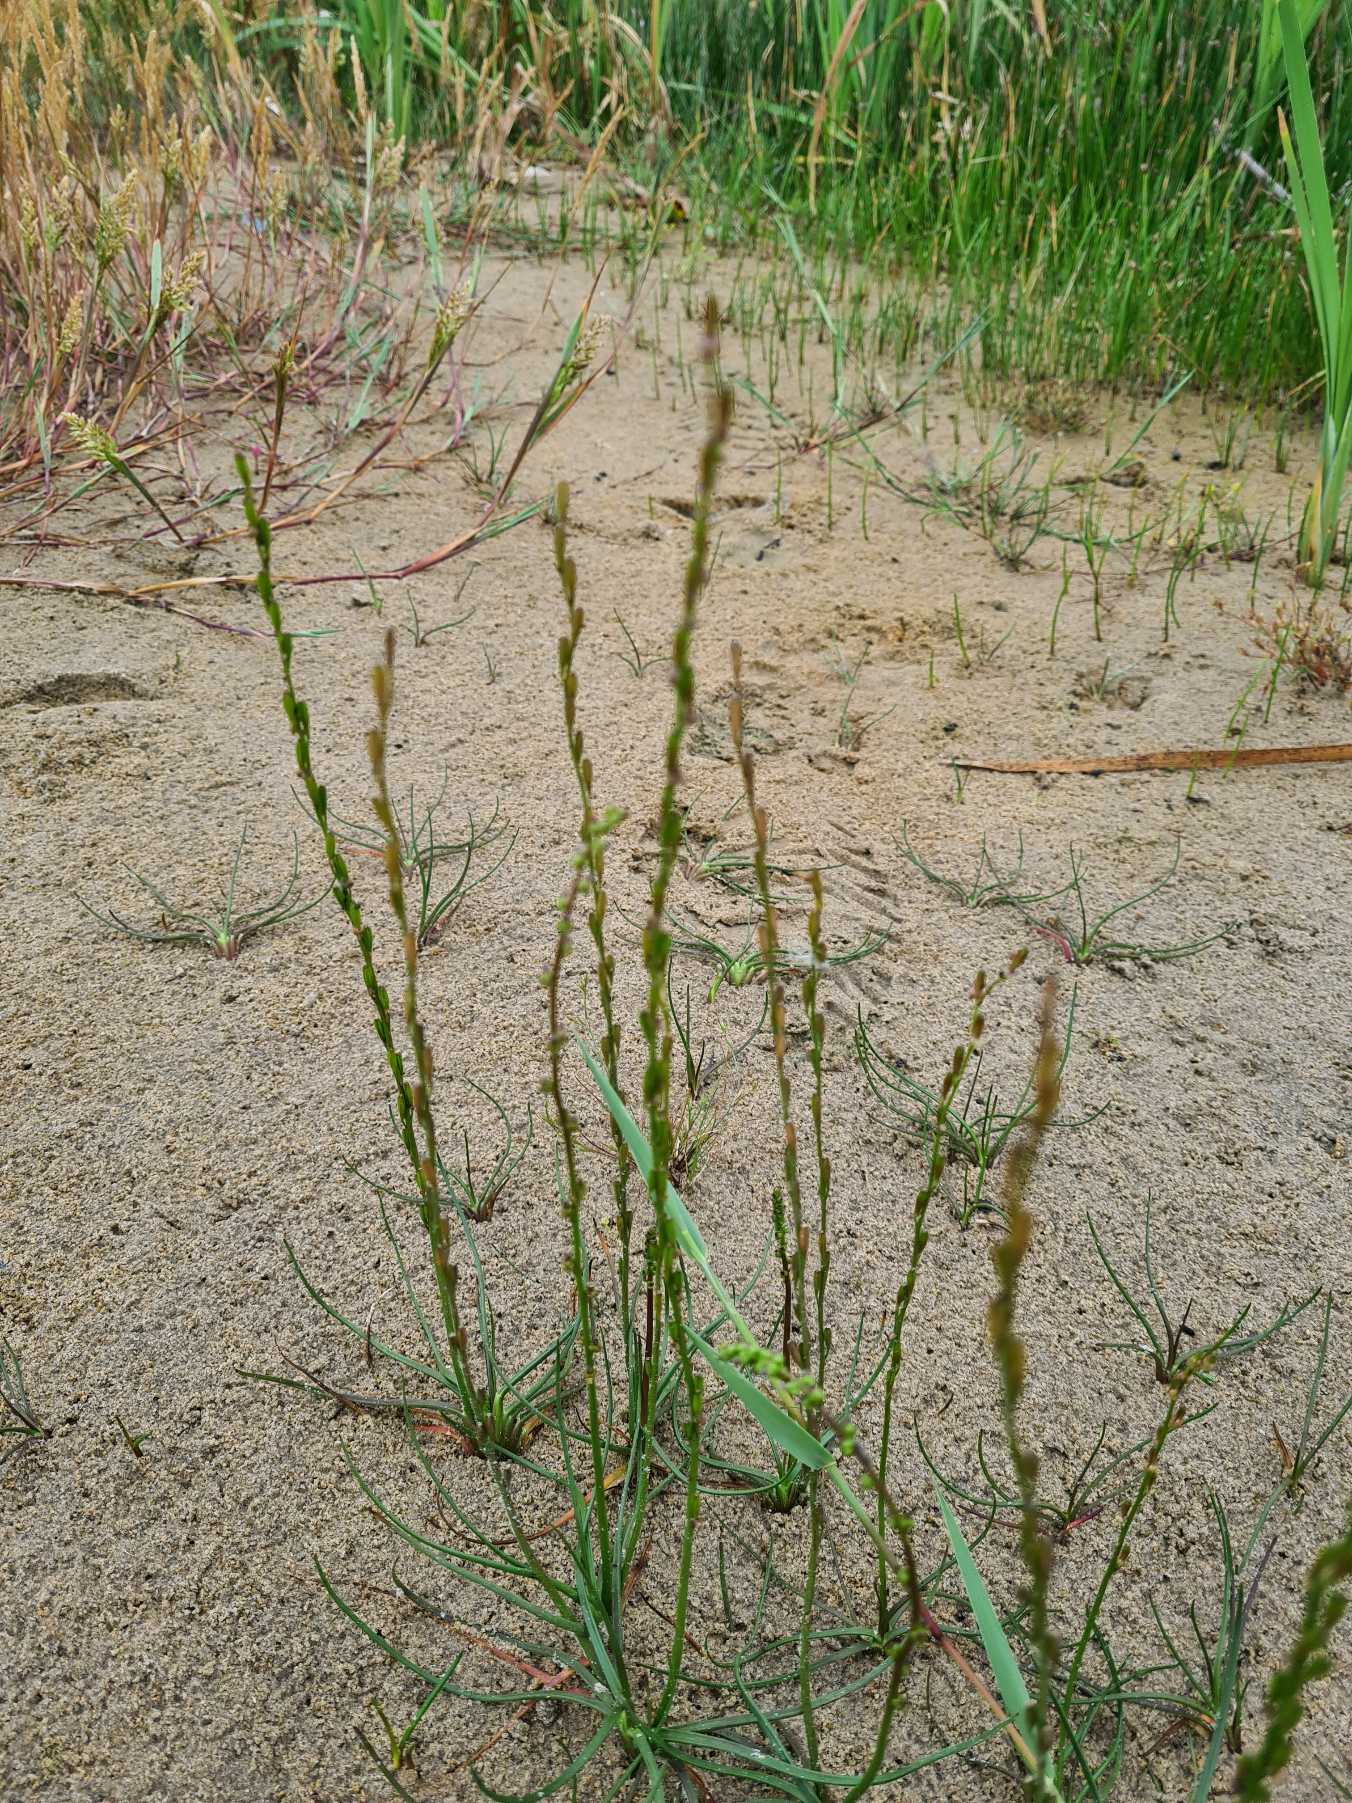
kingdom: Plantae
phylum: Tracheophyta
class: Liliopsida
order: Alismatales
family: Juncaginaceae
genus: Triglochin
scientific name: Triglochin palustris
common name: Kær-trehage
